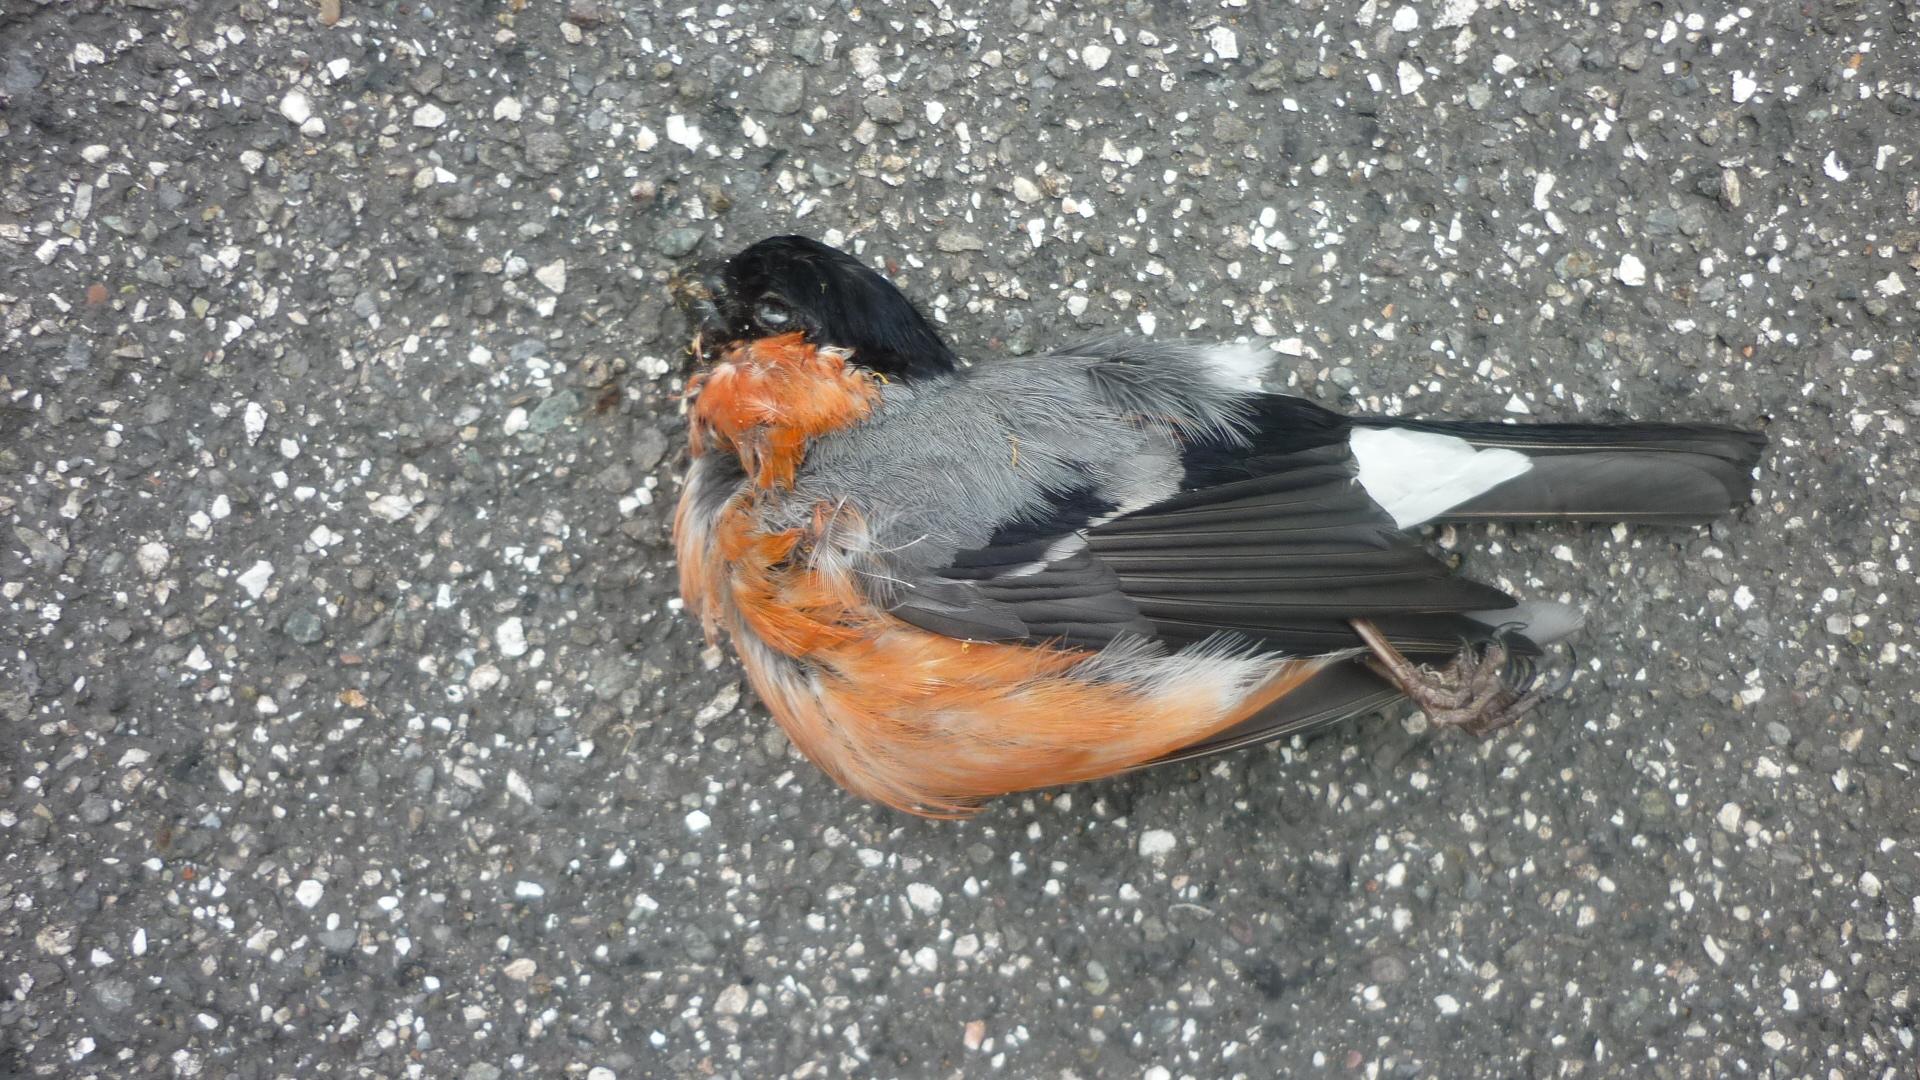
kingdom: Animalia
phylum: Chordata
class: Aves
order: Passeriformes
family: Fringillidae
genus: Pyrrhula
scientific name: Pyrrhula pyrrhula
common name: Eurasian bullfinch
